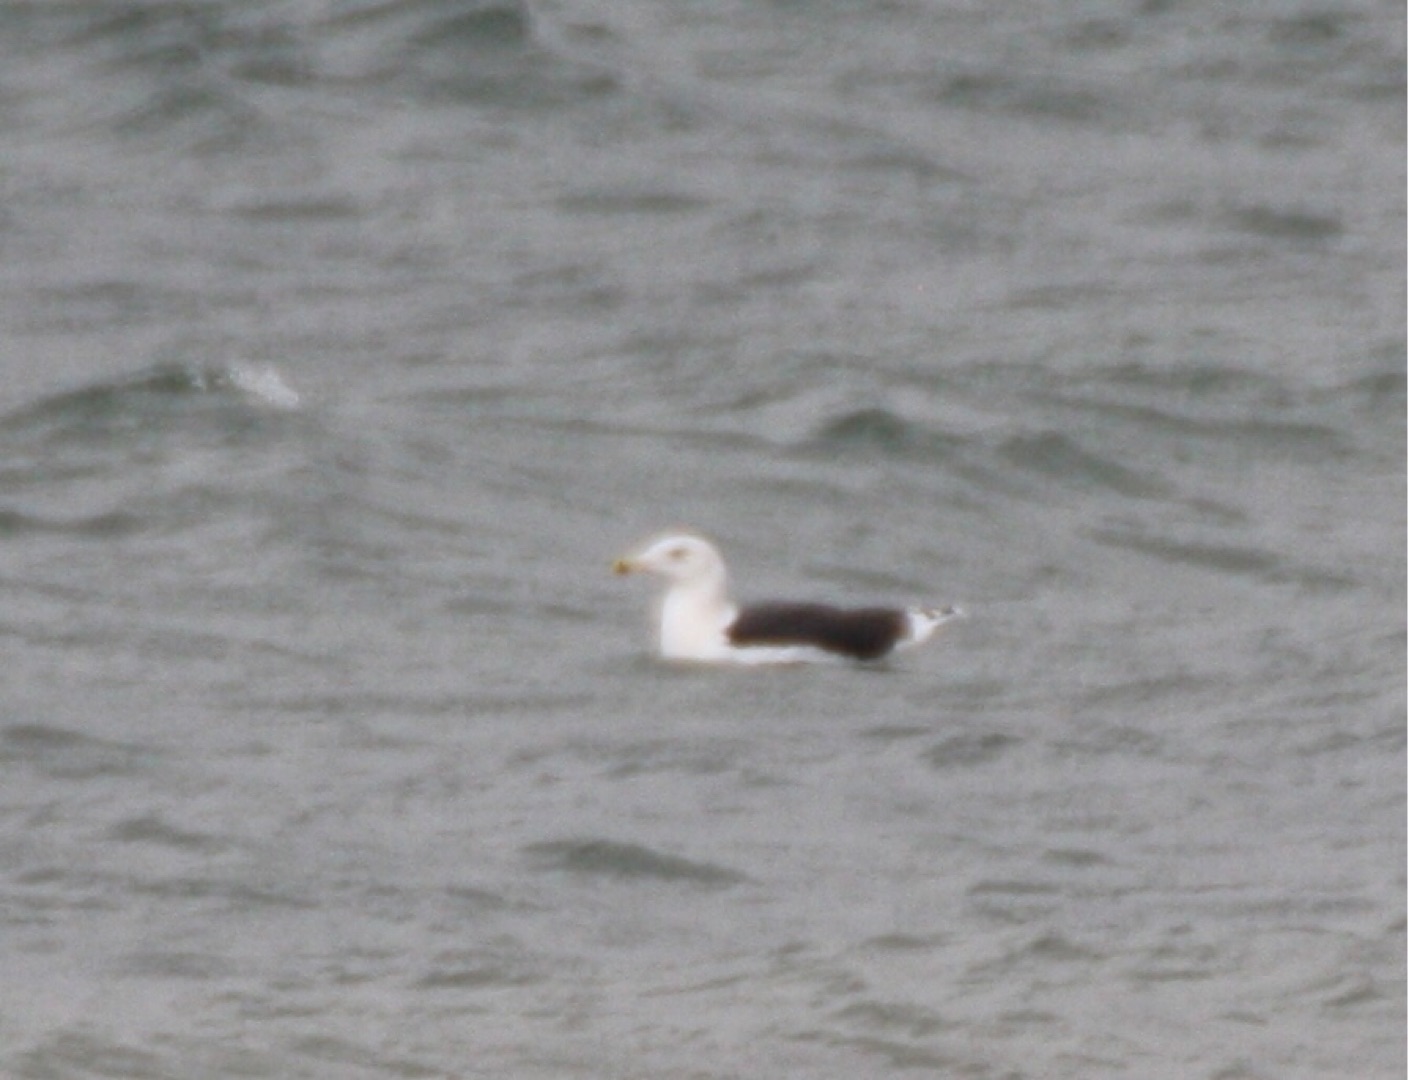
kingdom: Animalia
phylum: Chordata
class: Aves
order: Charadriiformes
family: Laridae
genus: Larus
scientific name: Larus marinus
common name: Svartbag
